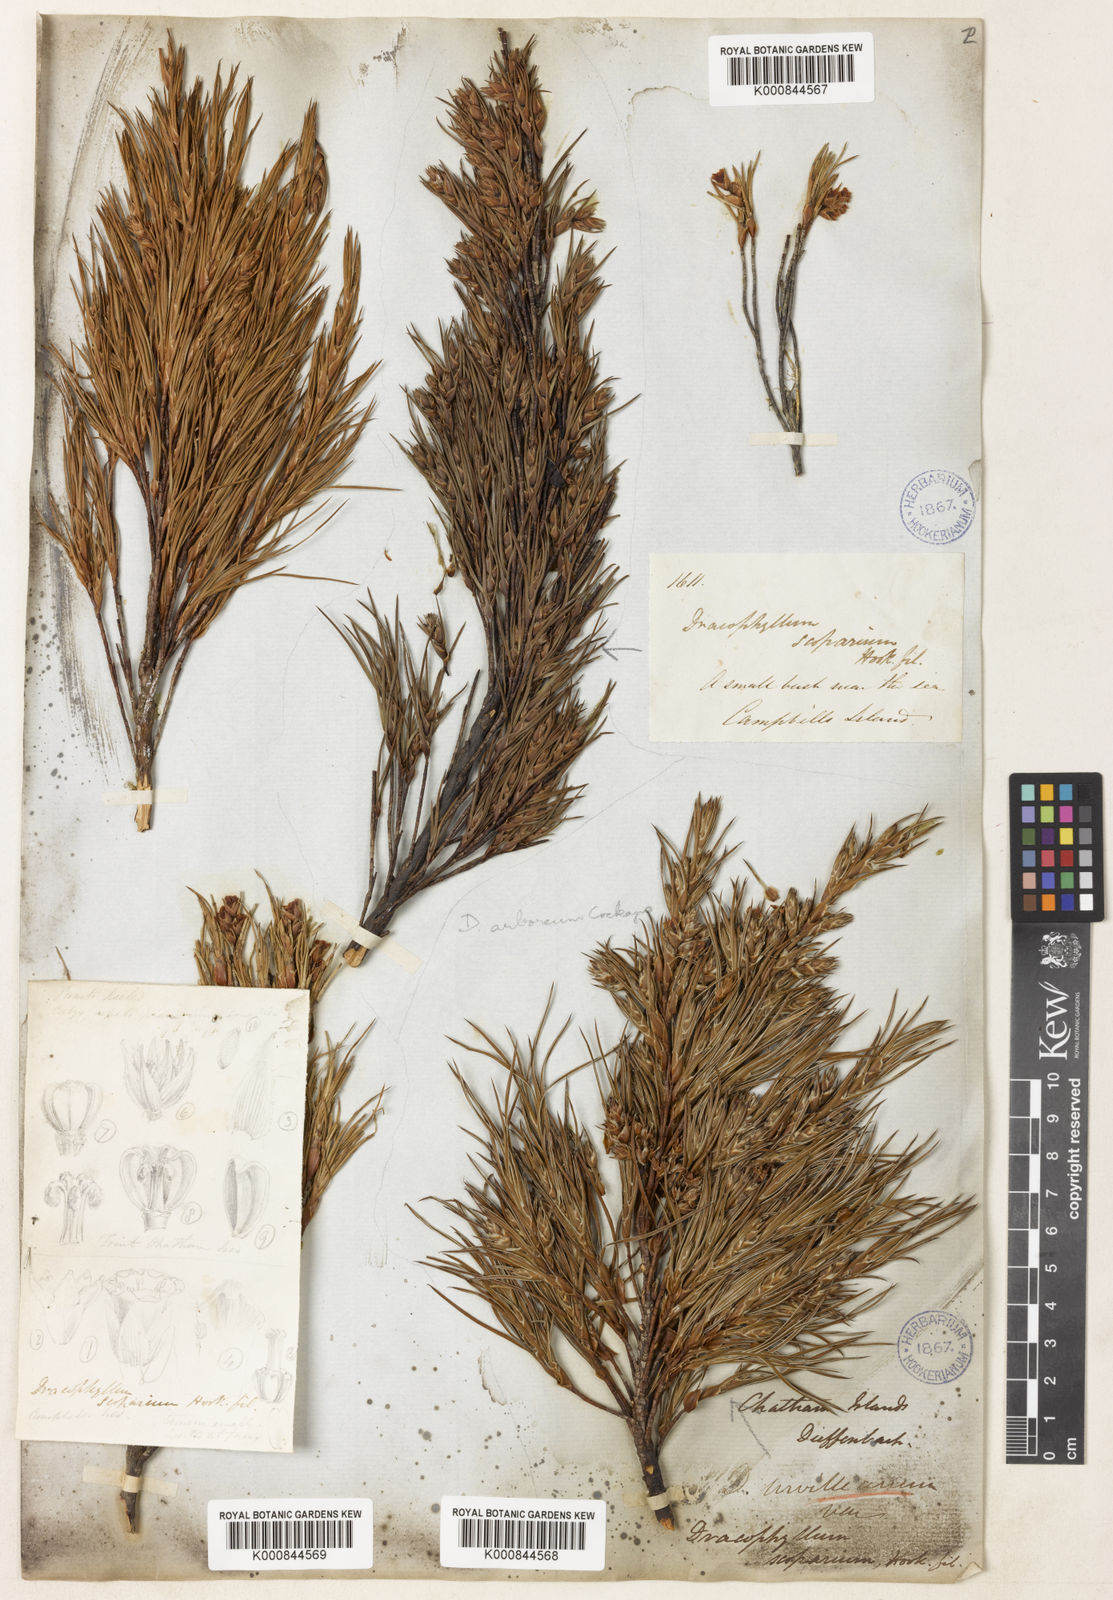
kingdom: Plantae
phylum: Tracheophyta
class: Magnoliopsida
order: Ericales
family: Ericaceae
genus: Dracophyllum
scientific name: Dracophyllum scoparium
